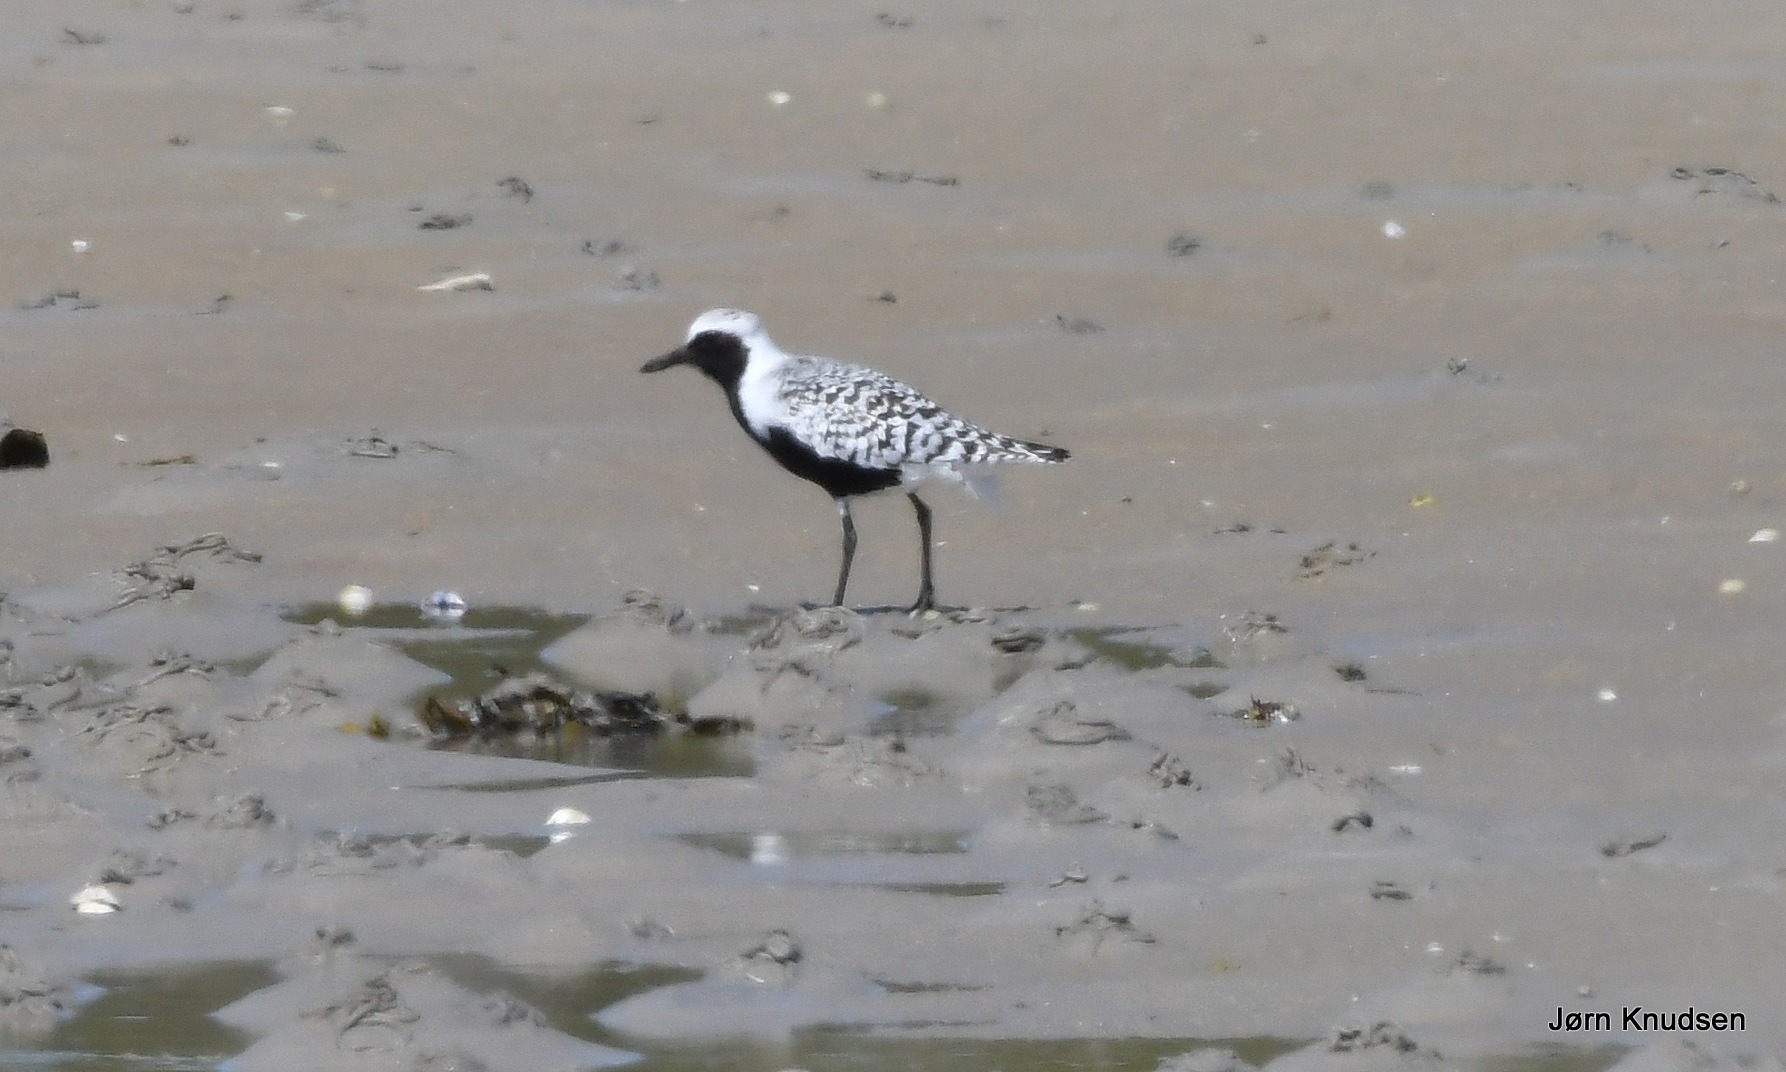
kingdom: Animalia
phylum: Chordata
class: Aves
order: Charadriiformes
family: Charadriidae
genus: Pluvialis
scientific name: Pluvialis squatarola
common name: Strandhjejle
